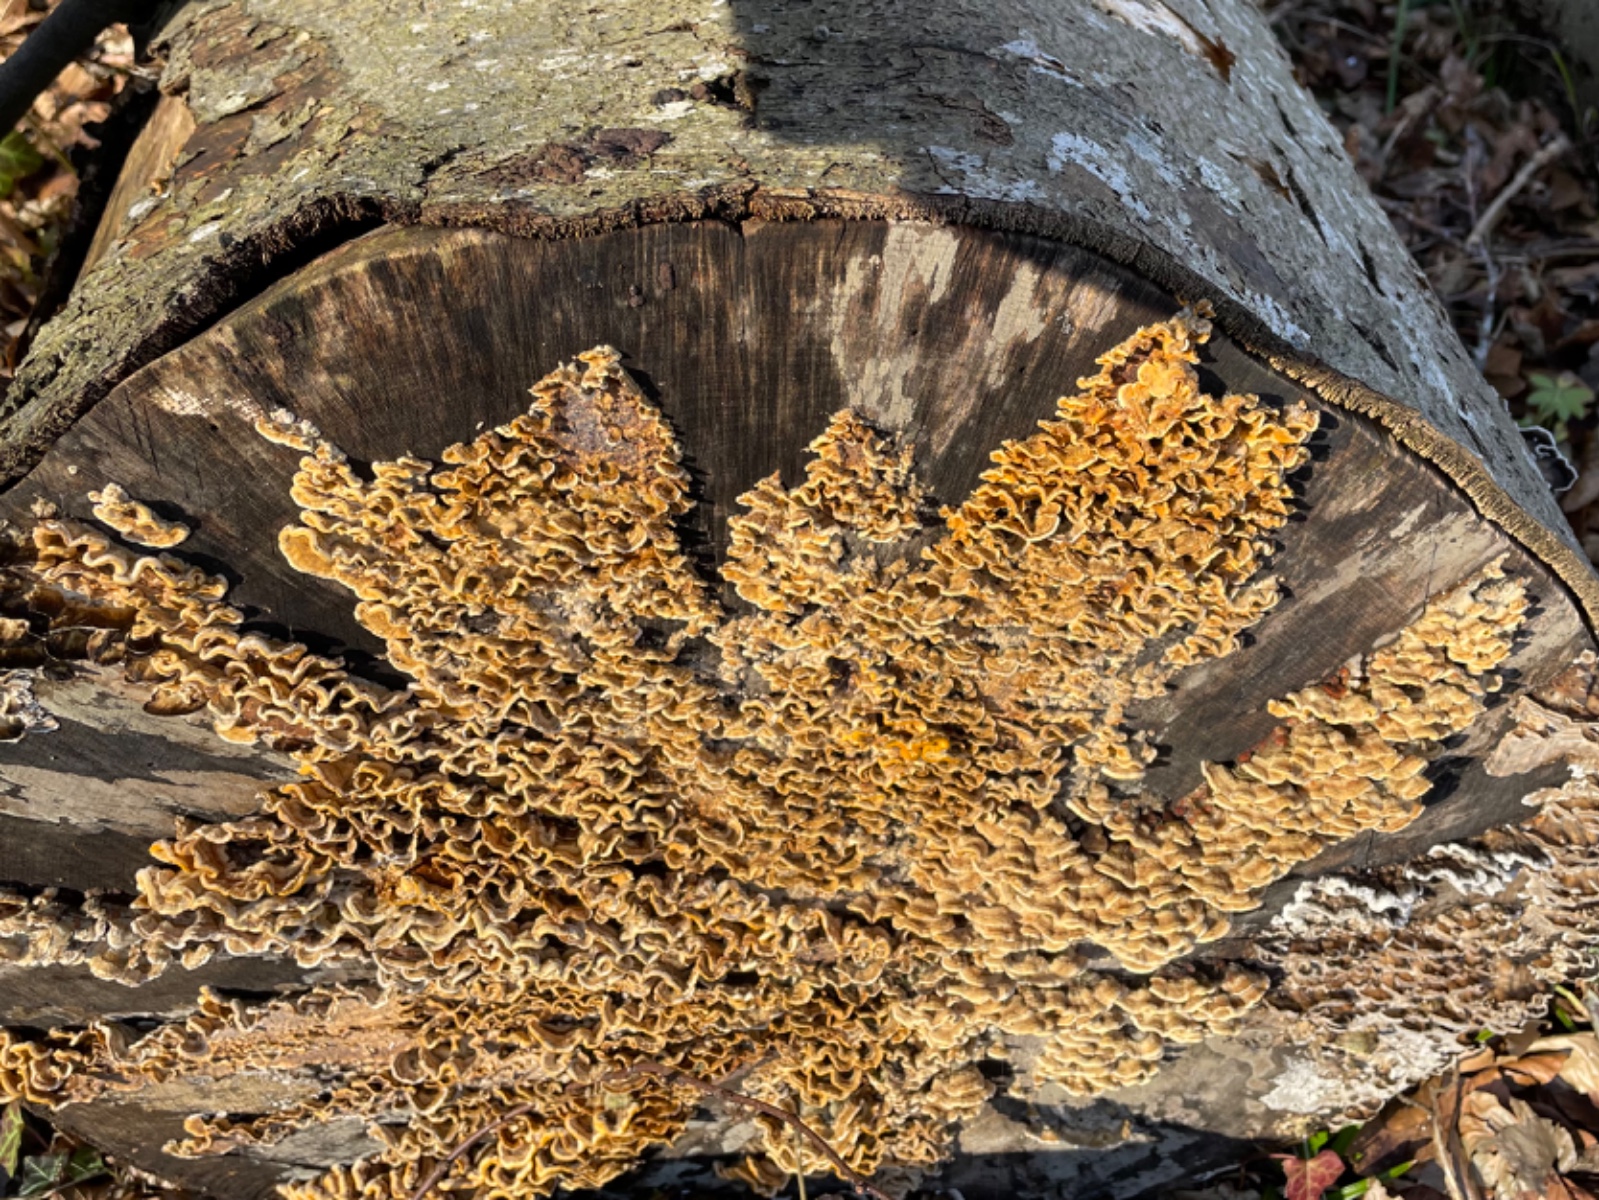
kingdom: Fungi
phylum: Basidiomycota
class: Agaricomycetes
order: Russulales
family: Stereaceae
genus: Stereum
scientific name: Stereum hirsutum
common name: håret lædersvamp
